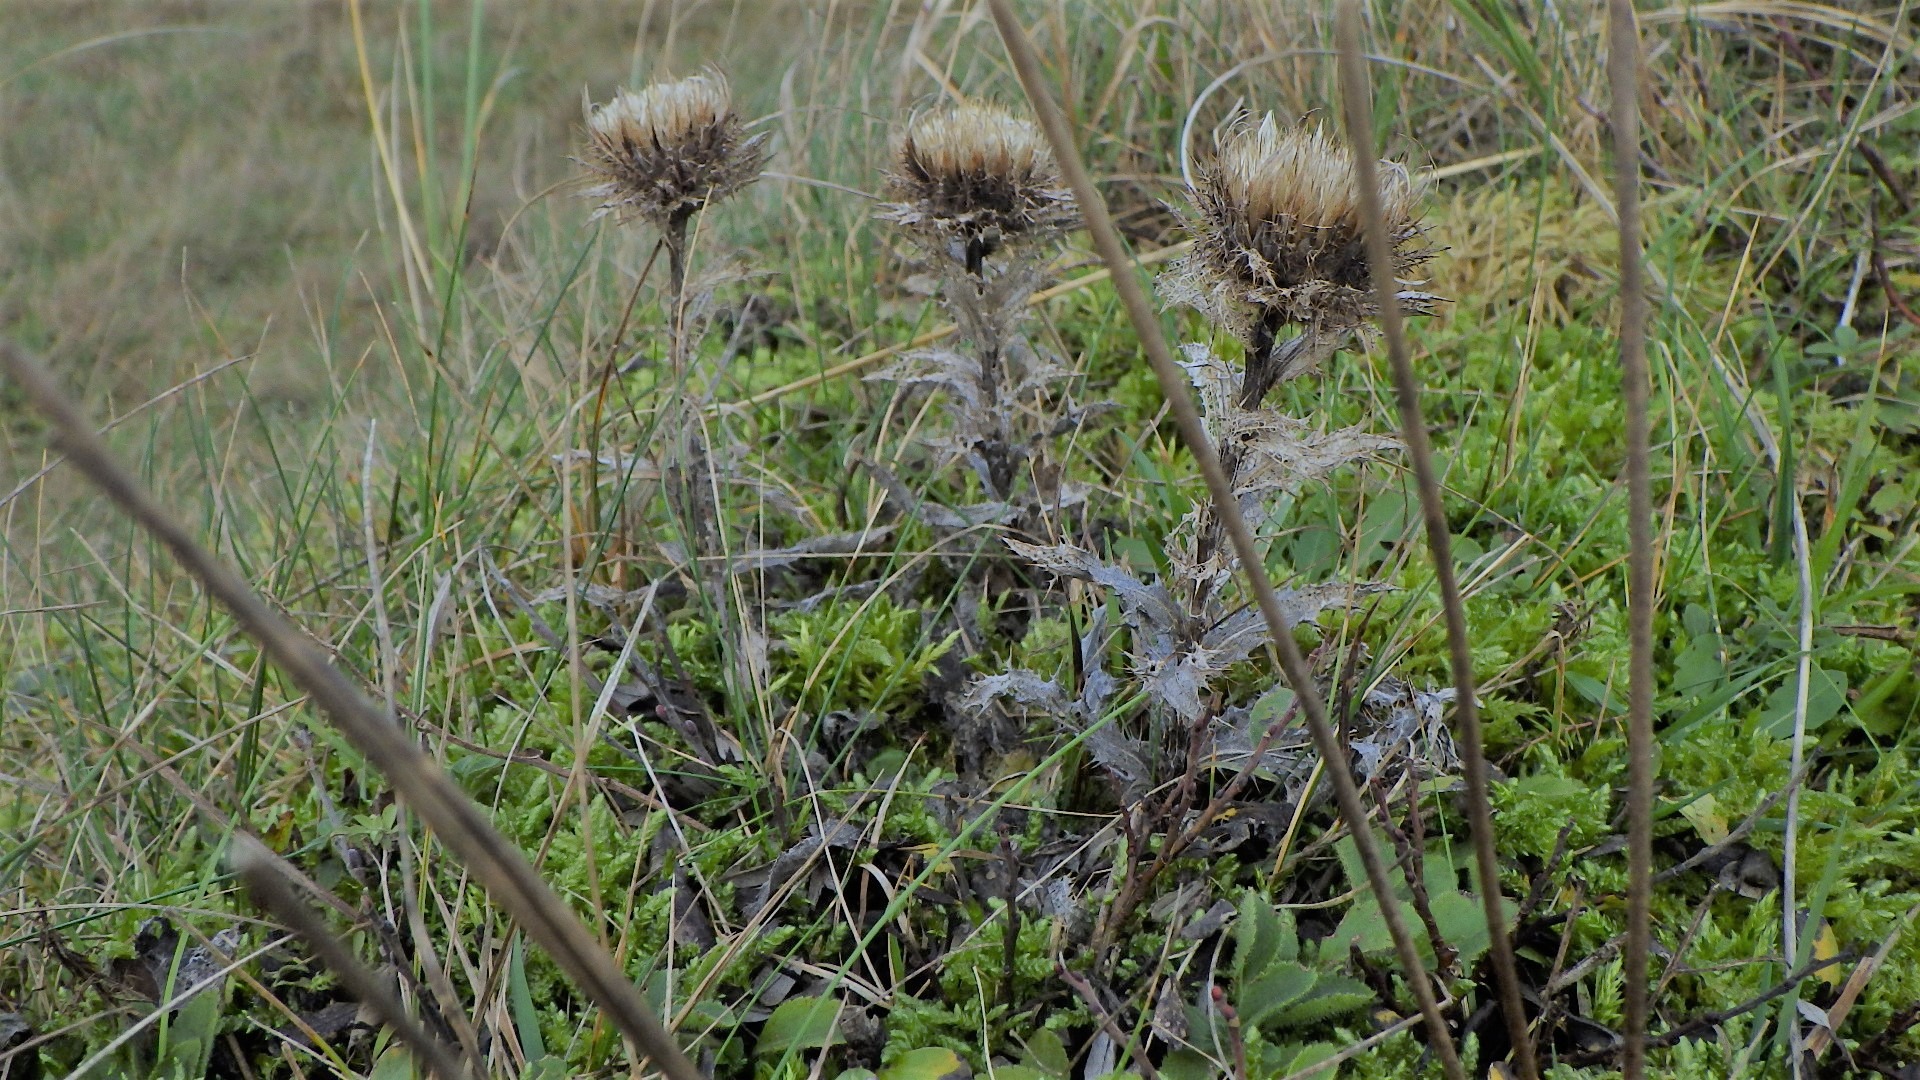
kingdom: Plantae
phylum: Tracheophyta
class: Magnoliopsida
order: Asterales
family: Asteraceae
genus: Carlina
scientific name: Carlina vulgaris
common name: Bakketidsel
